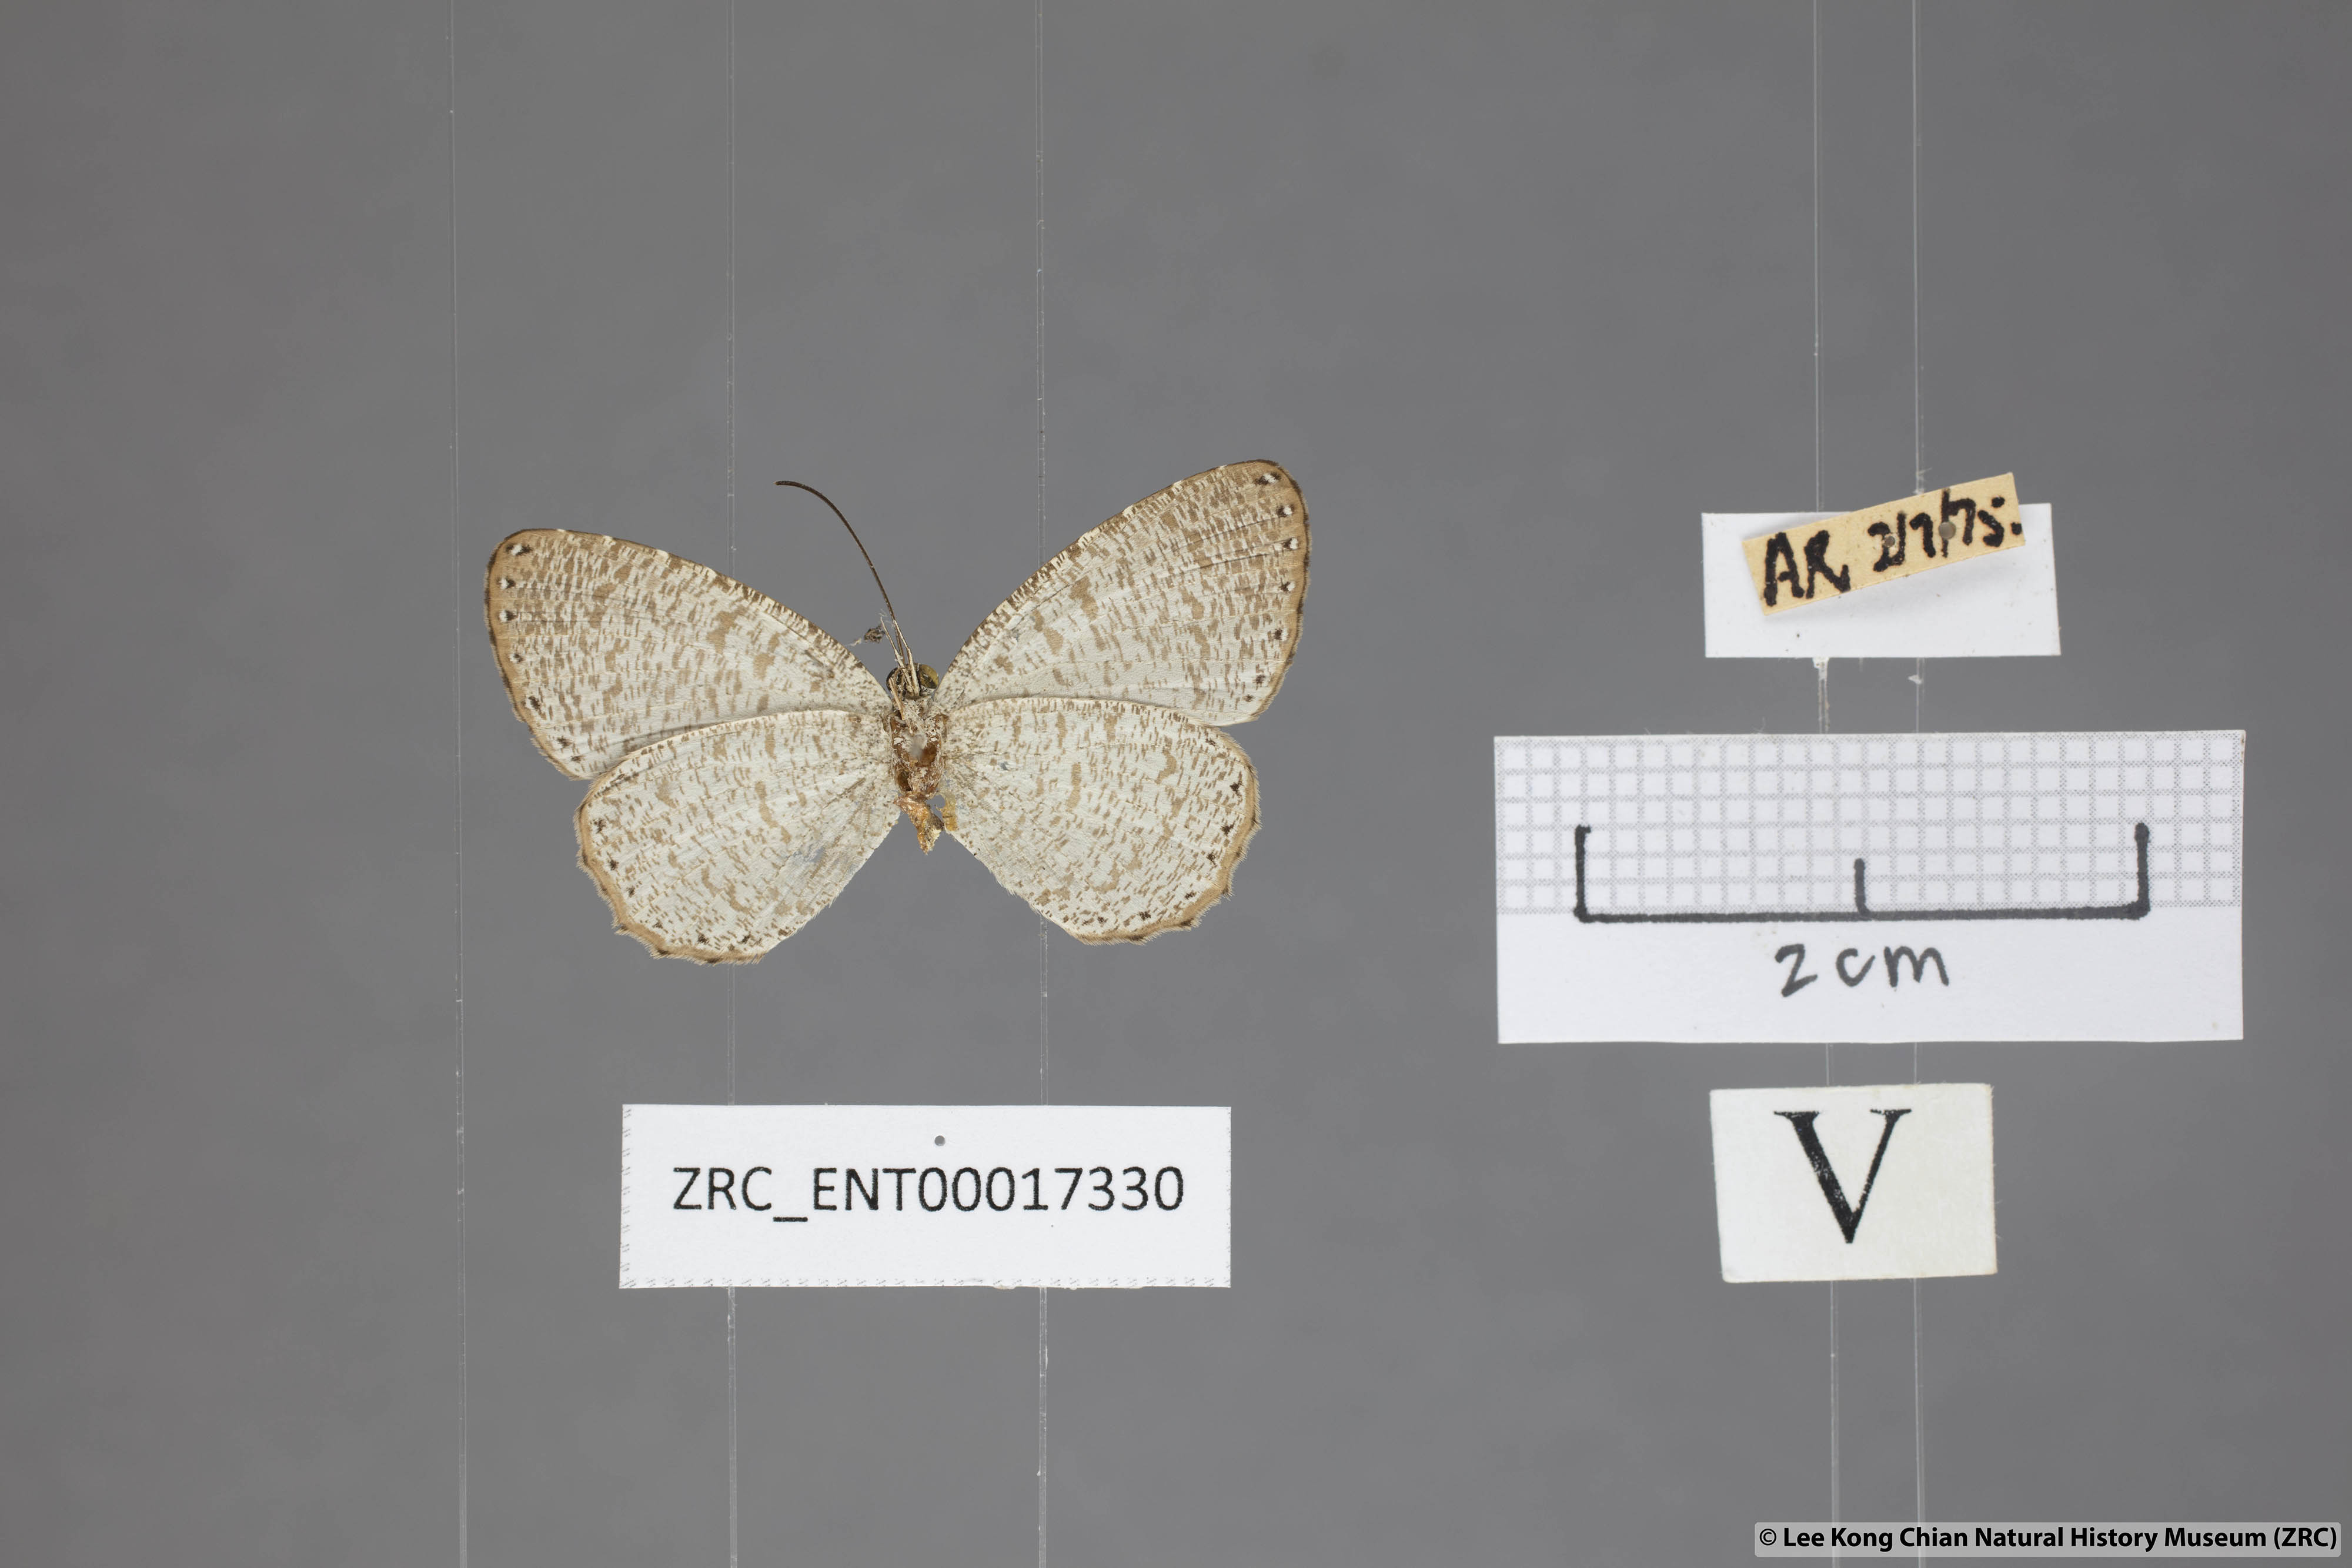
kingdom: Animalia
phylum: Arthropoda
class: Insecta
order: Lepidoptera
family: Lycaenidae
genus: Allotinus
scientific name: Allotinus sarastes
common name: Peninsular darkie
